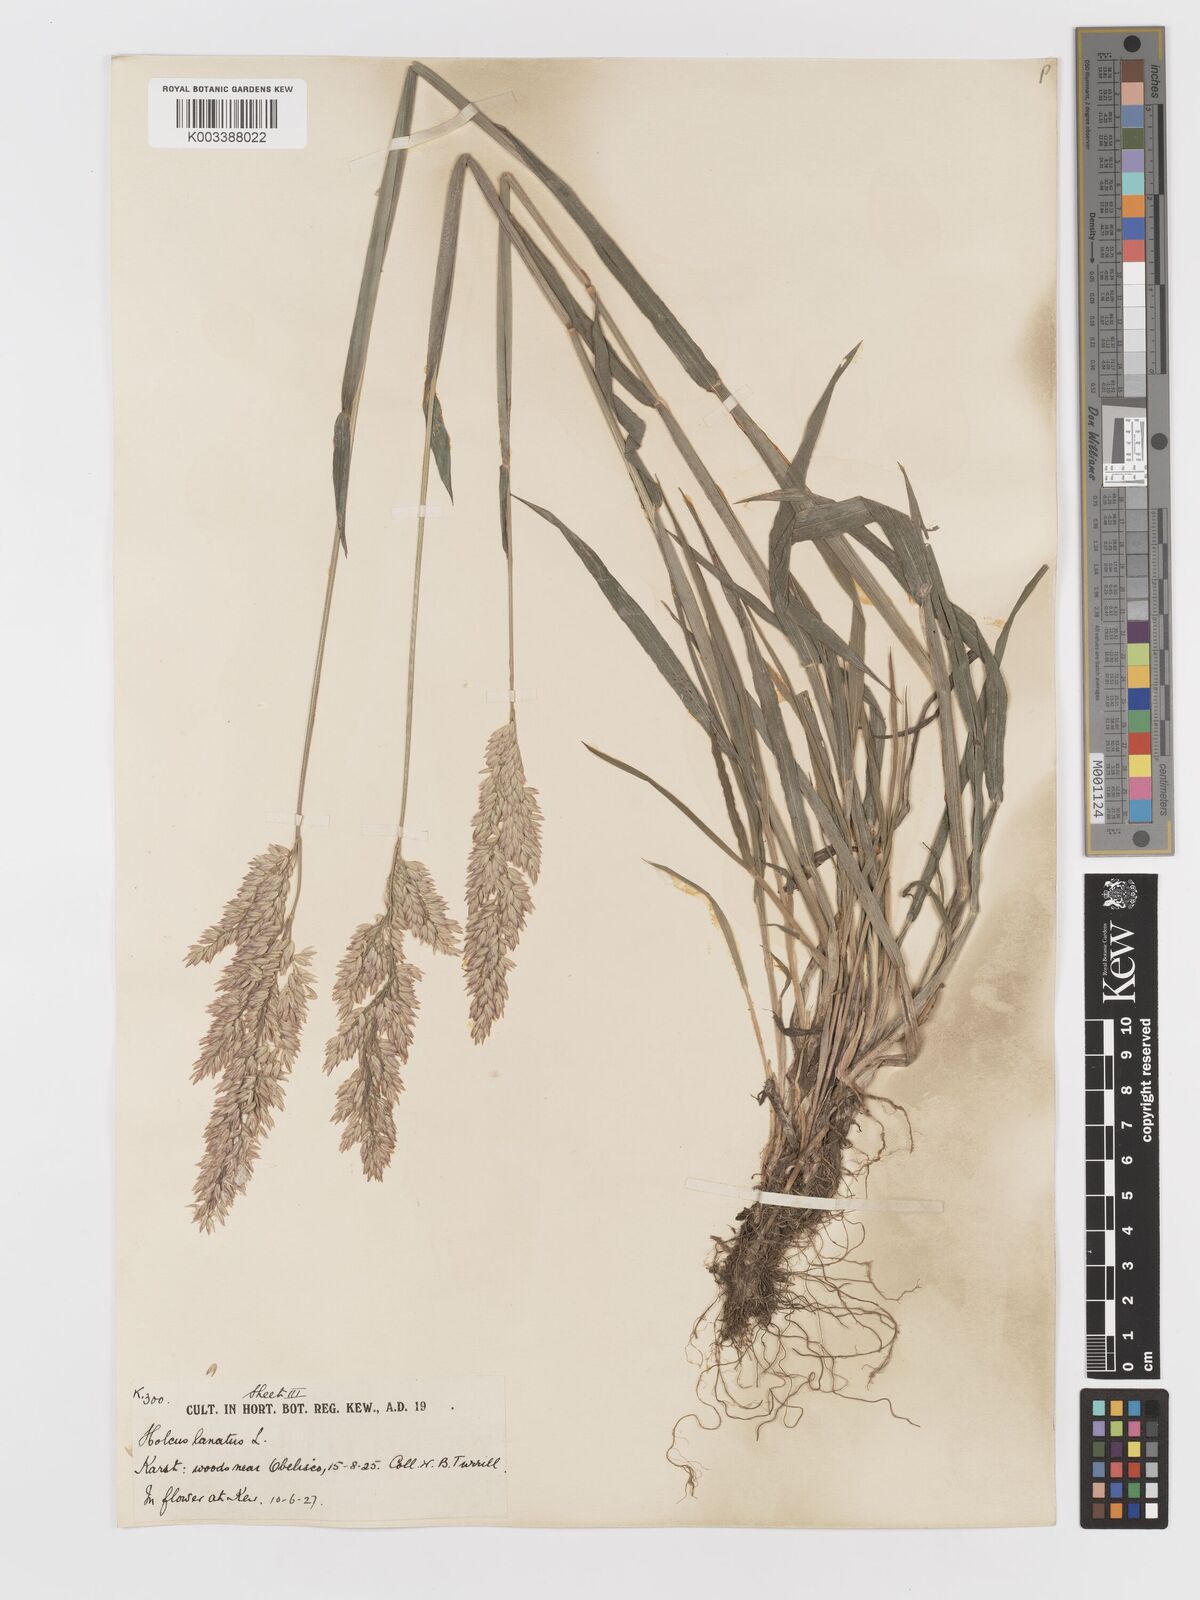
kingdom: Plantae
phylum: Tracheophyta
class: Liliopsida
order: Poales
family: Poaceae
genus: Holcus
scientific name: Holcus lanatus
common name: Yorkshire-fog
